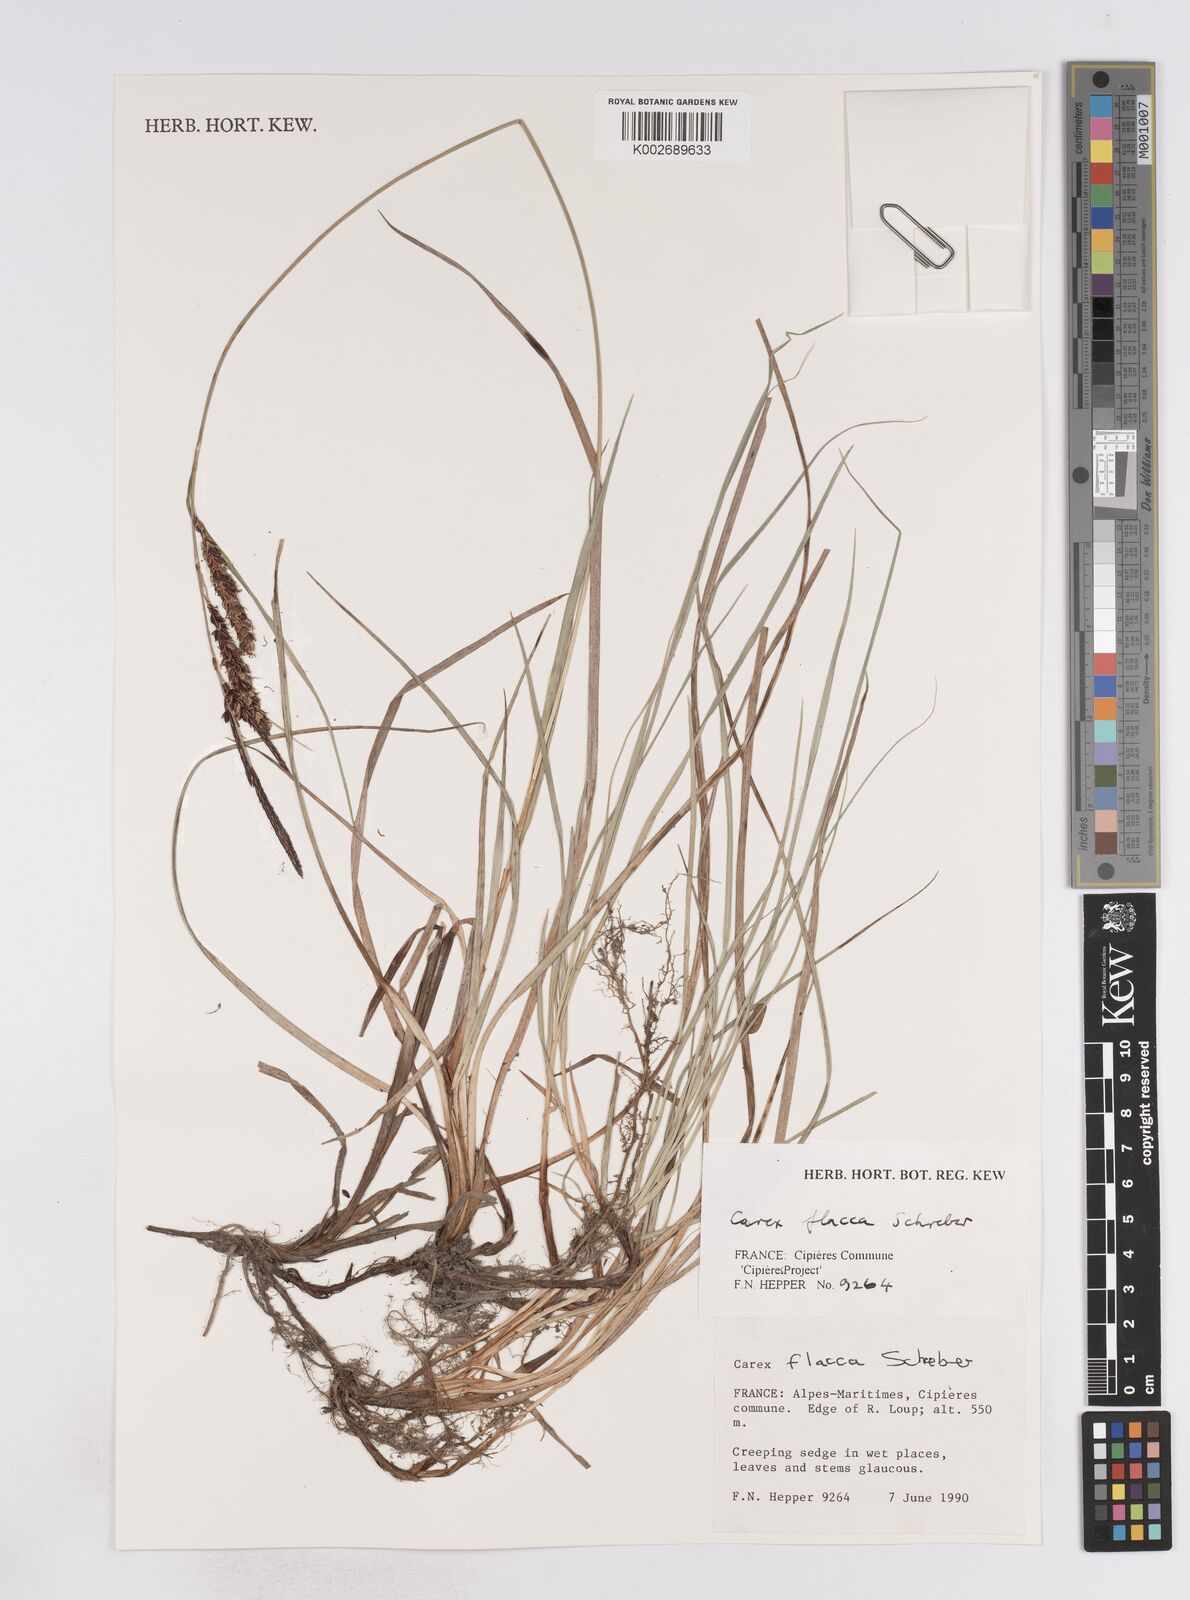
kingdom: Plantae
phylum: Tracheophyta
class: Liliopsida
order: Poales
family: Cyperaceae
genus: Carex
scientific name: Carex flacca
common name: Glaucous sedge
